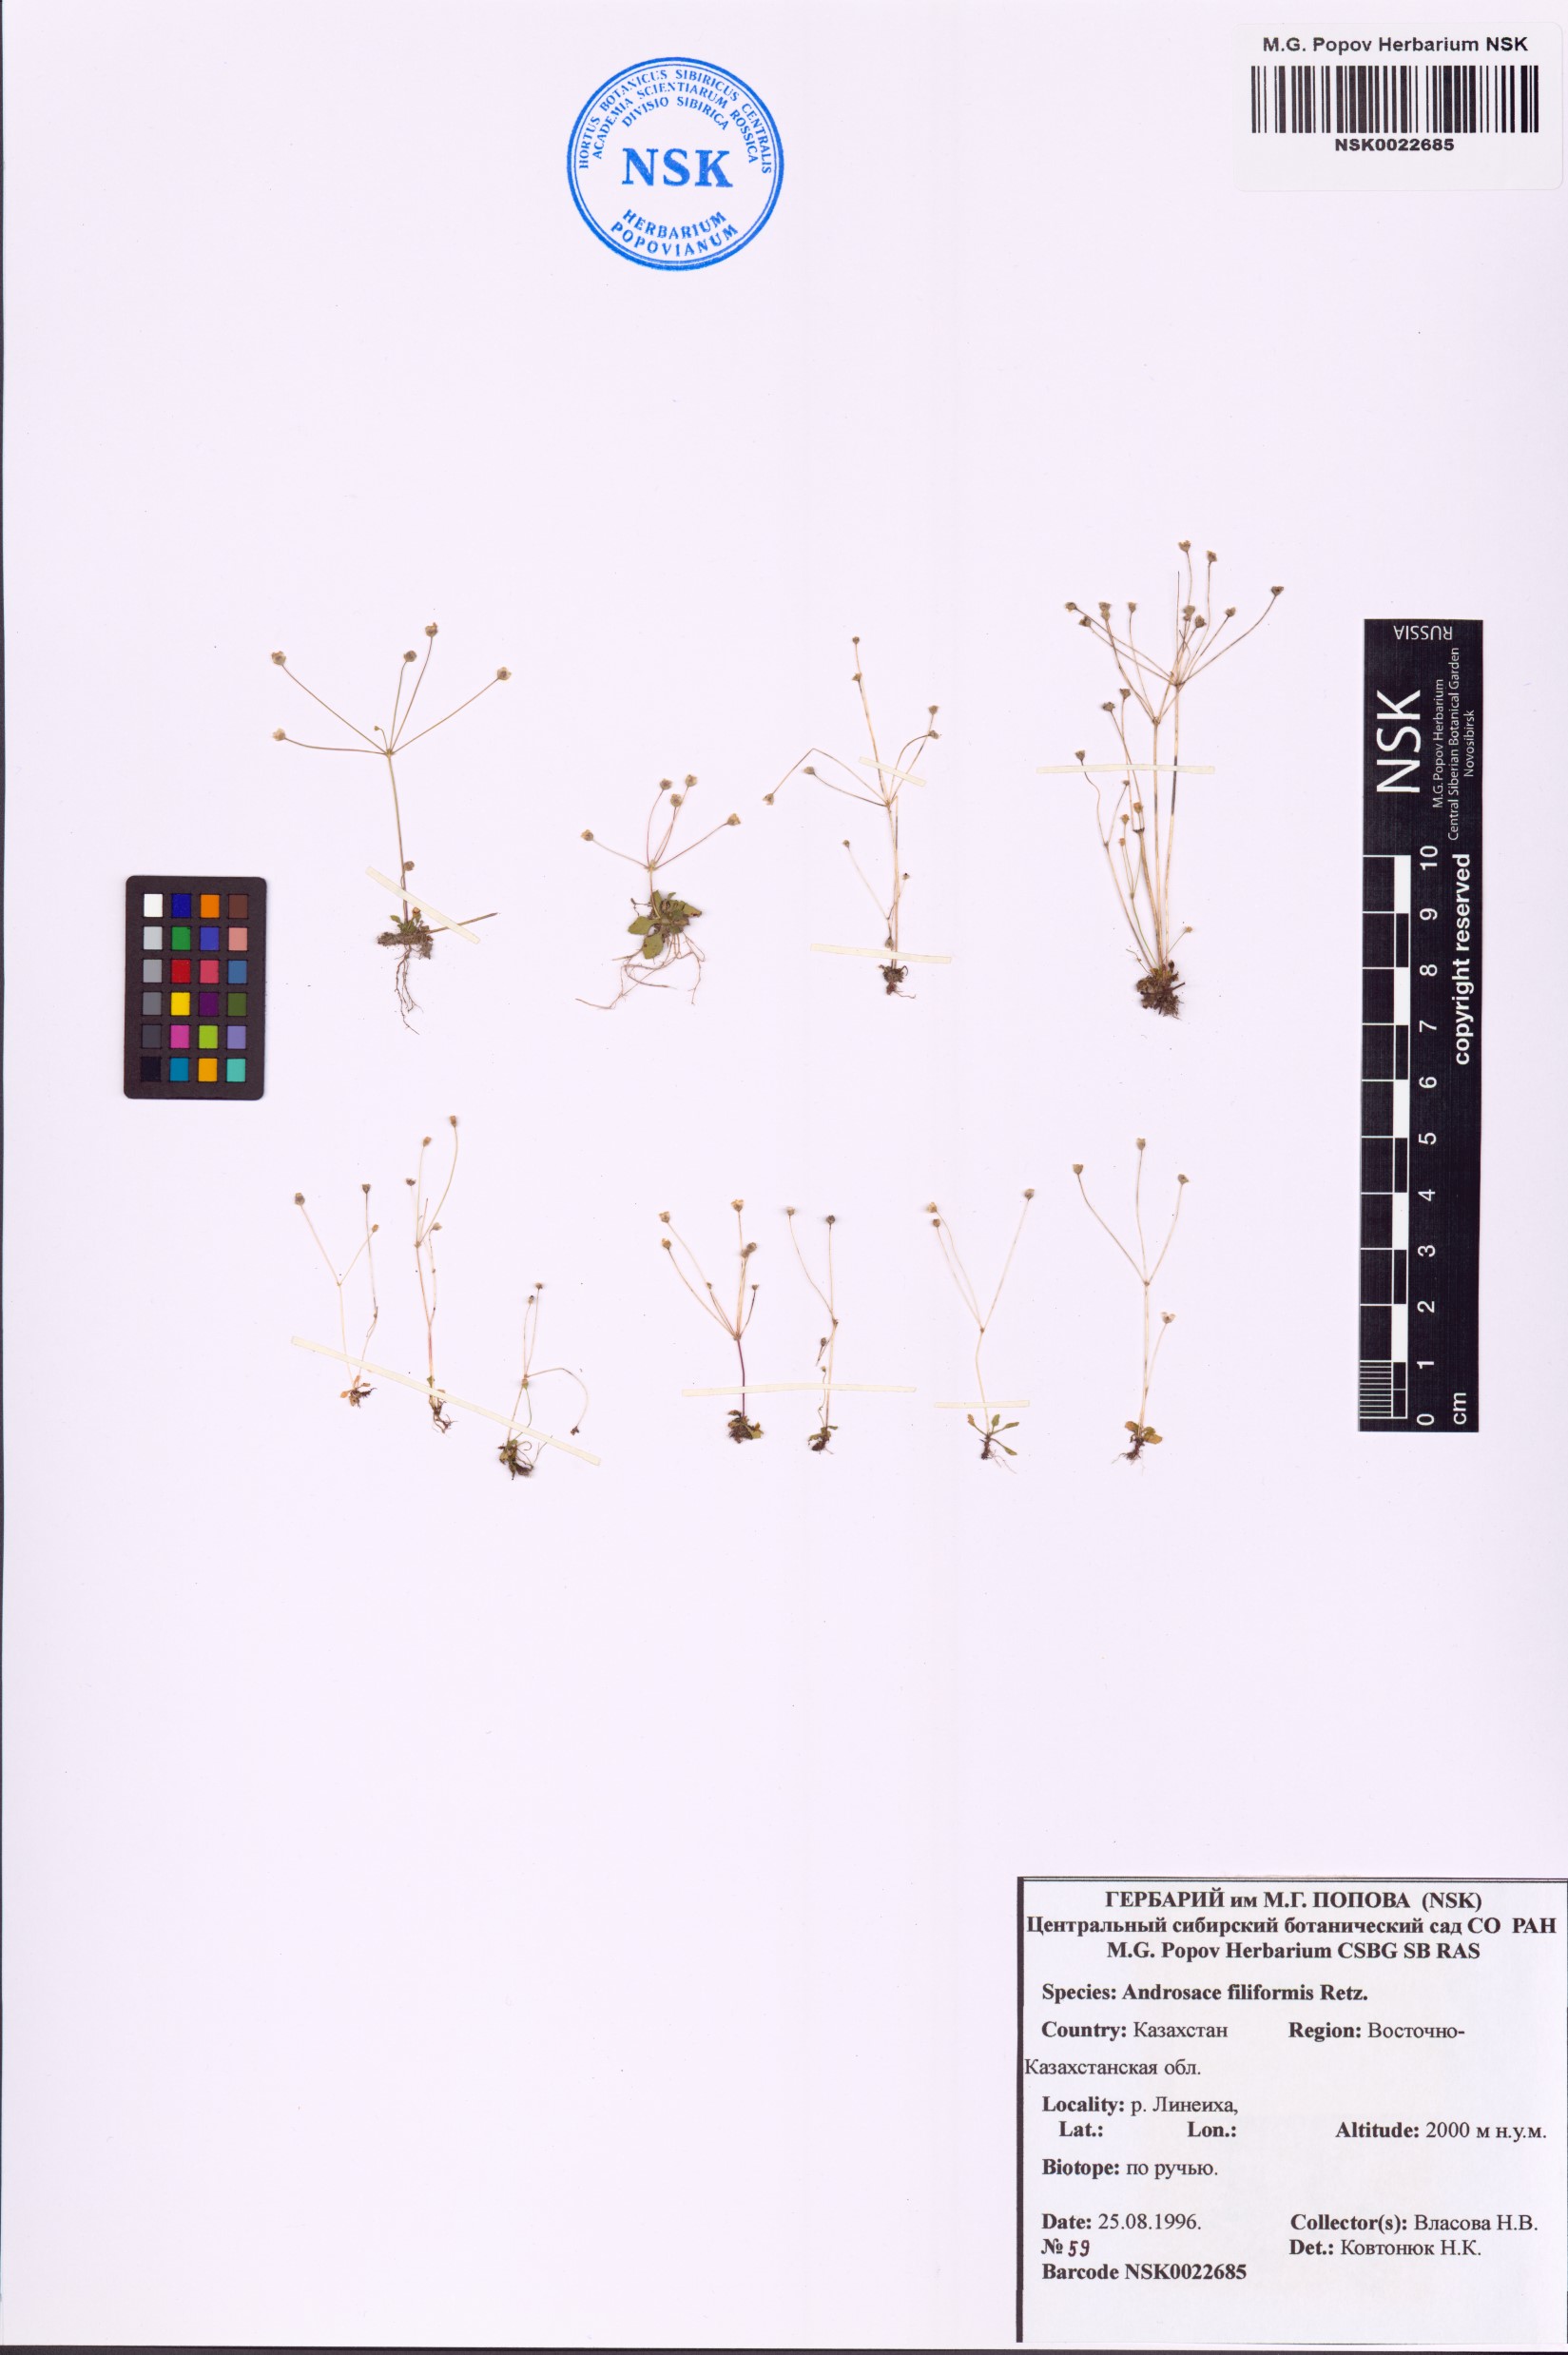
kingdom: Plantae
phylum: Tracheophyta
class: Magnoliopsida
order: Ericales
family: Primulaceae
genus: Androsace
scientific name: Androsace filiformis
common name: Filiform rock jasmine
